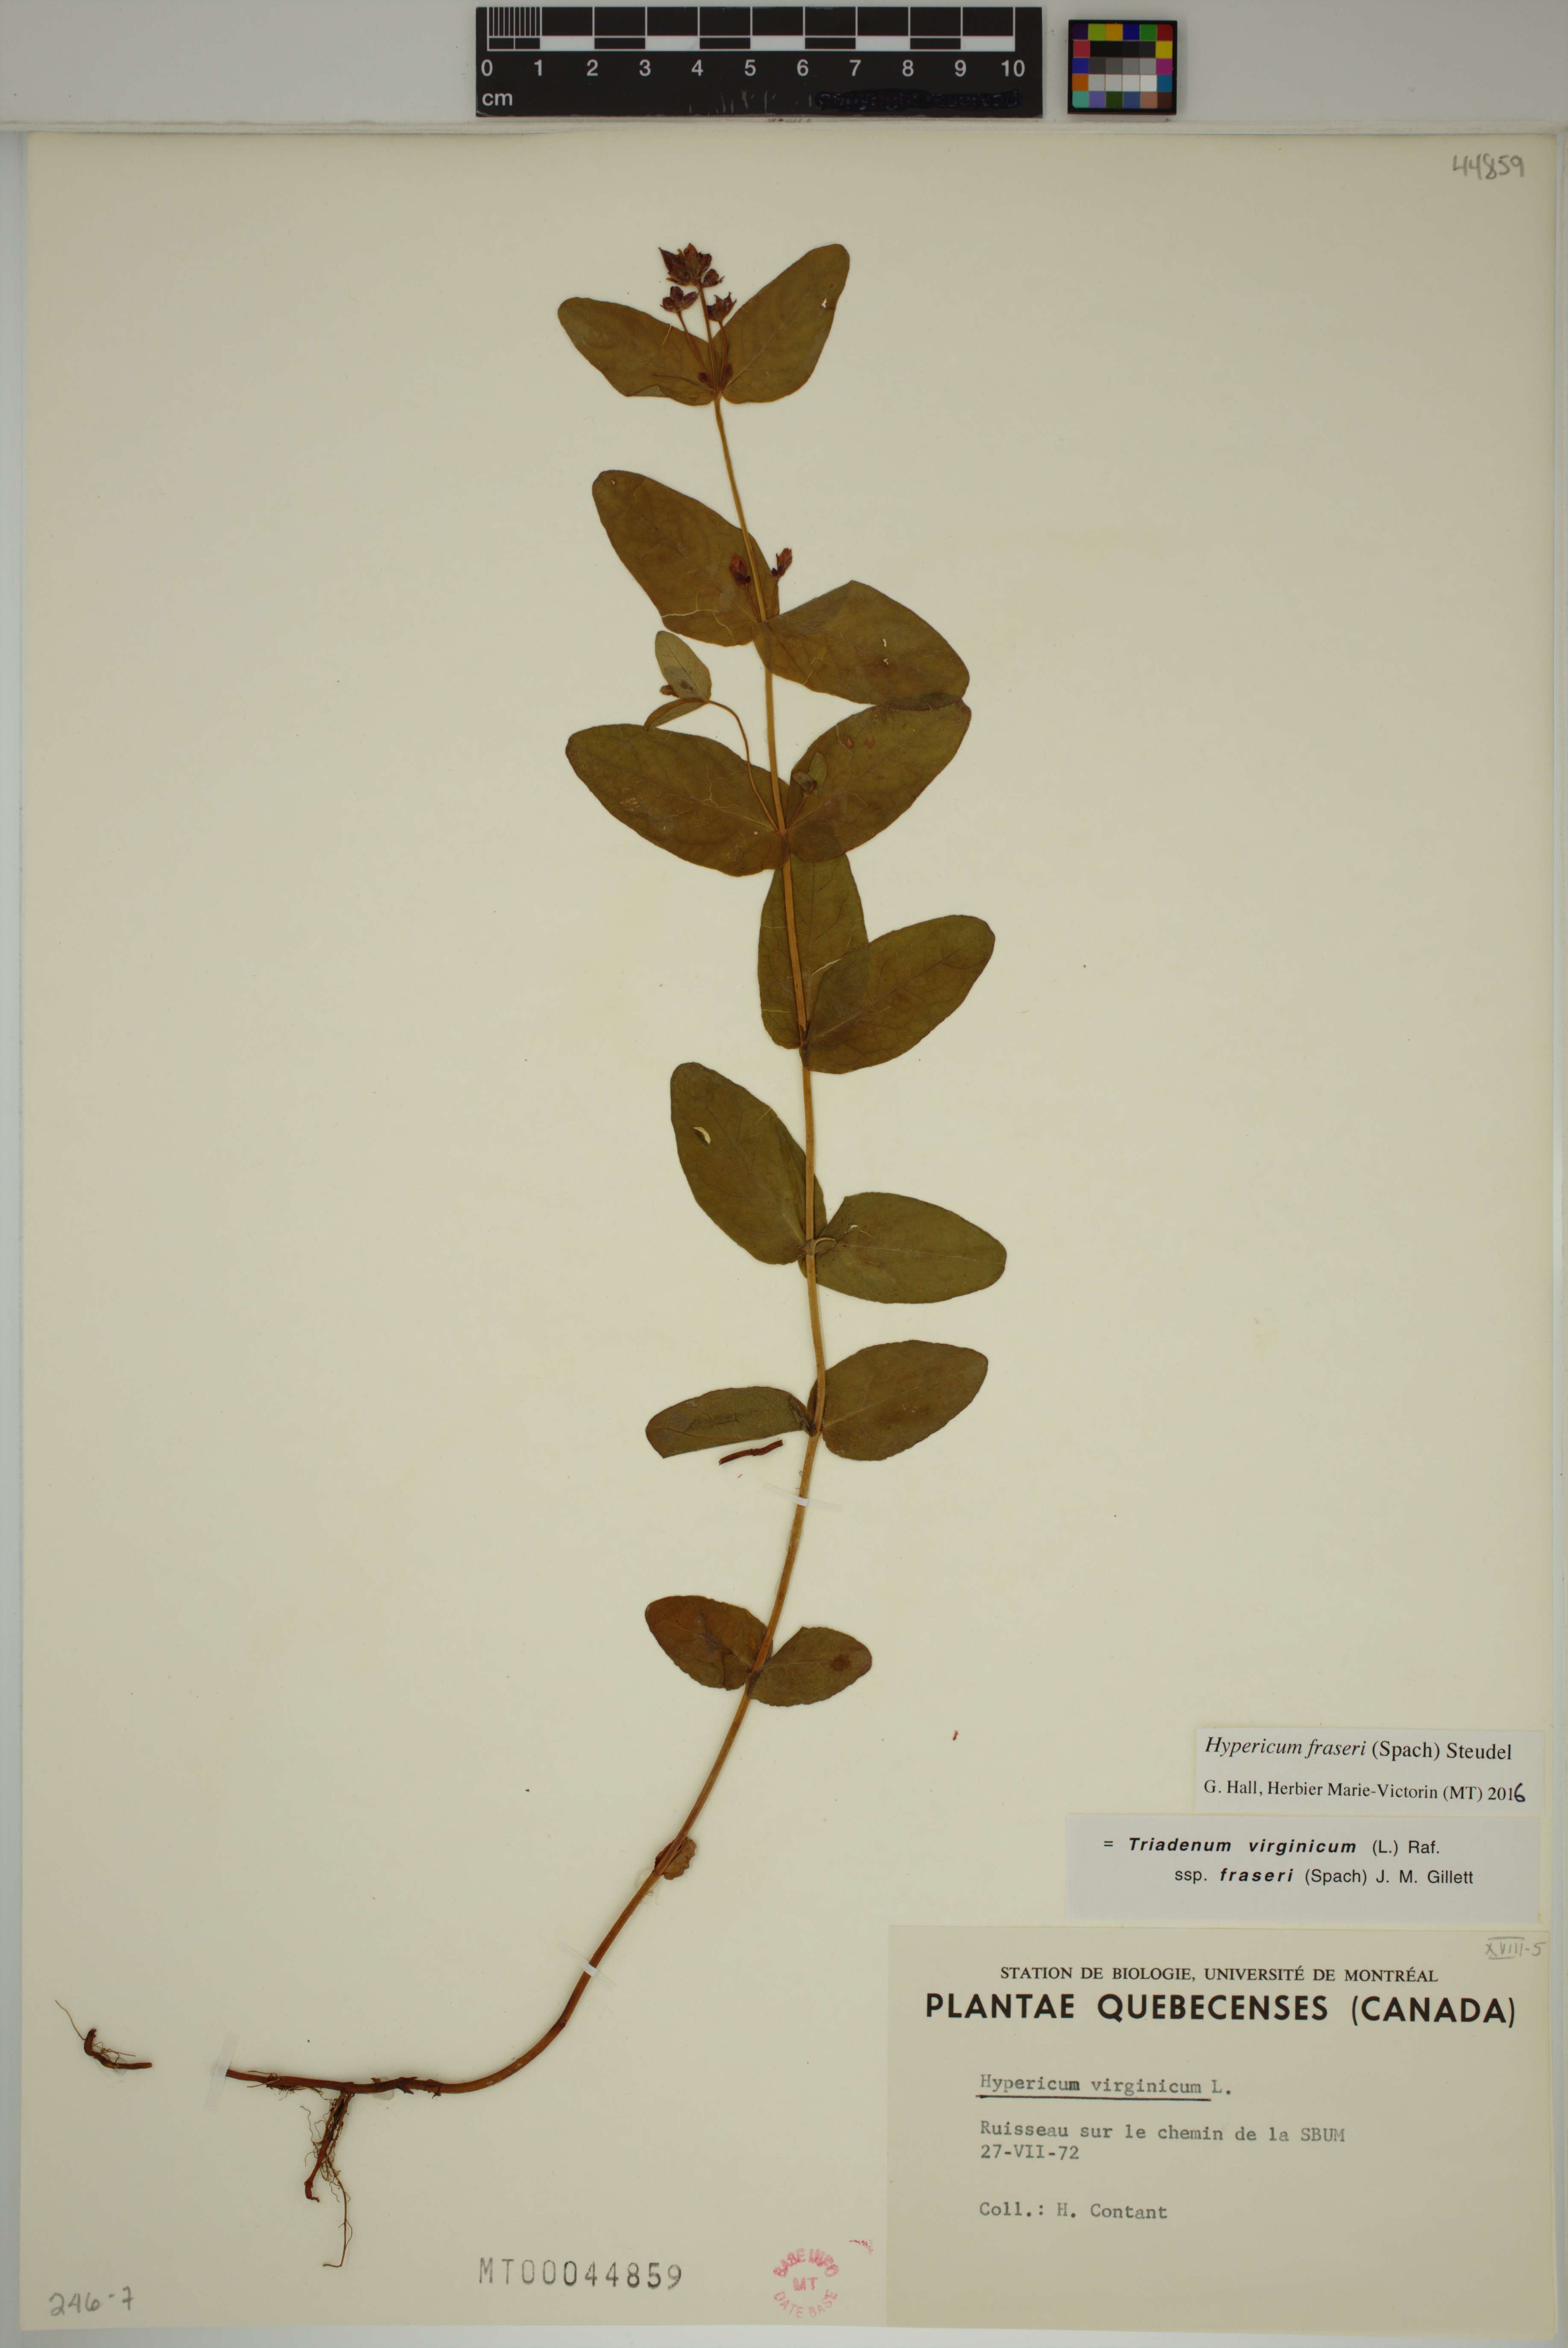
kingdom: Plantae
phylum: Tracheophyta
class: Magnoliopsida
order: Malpighiales
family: Hypericaceae
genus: Triadenum
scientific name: Triadenum fraseri
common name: Fraser's marsh st. johnswort
